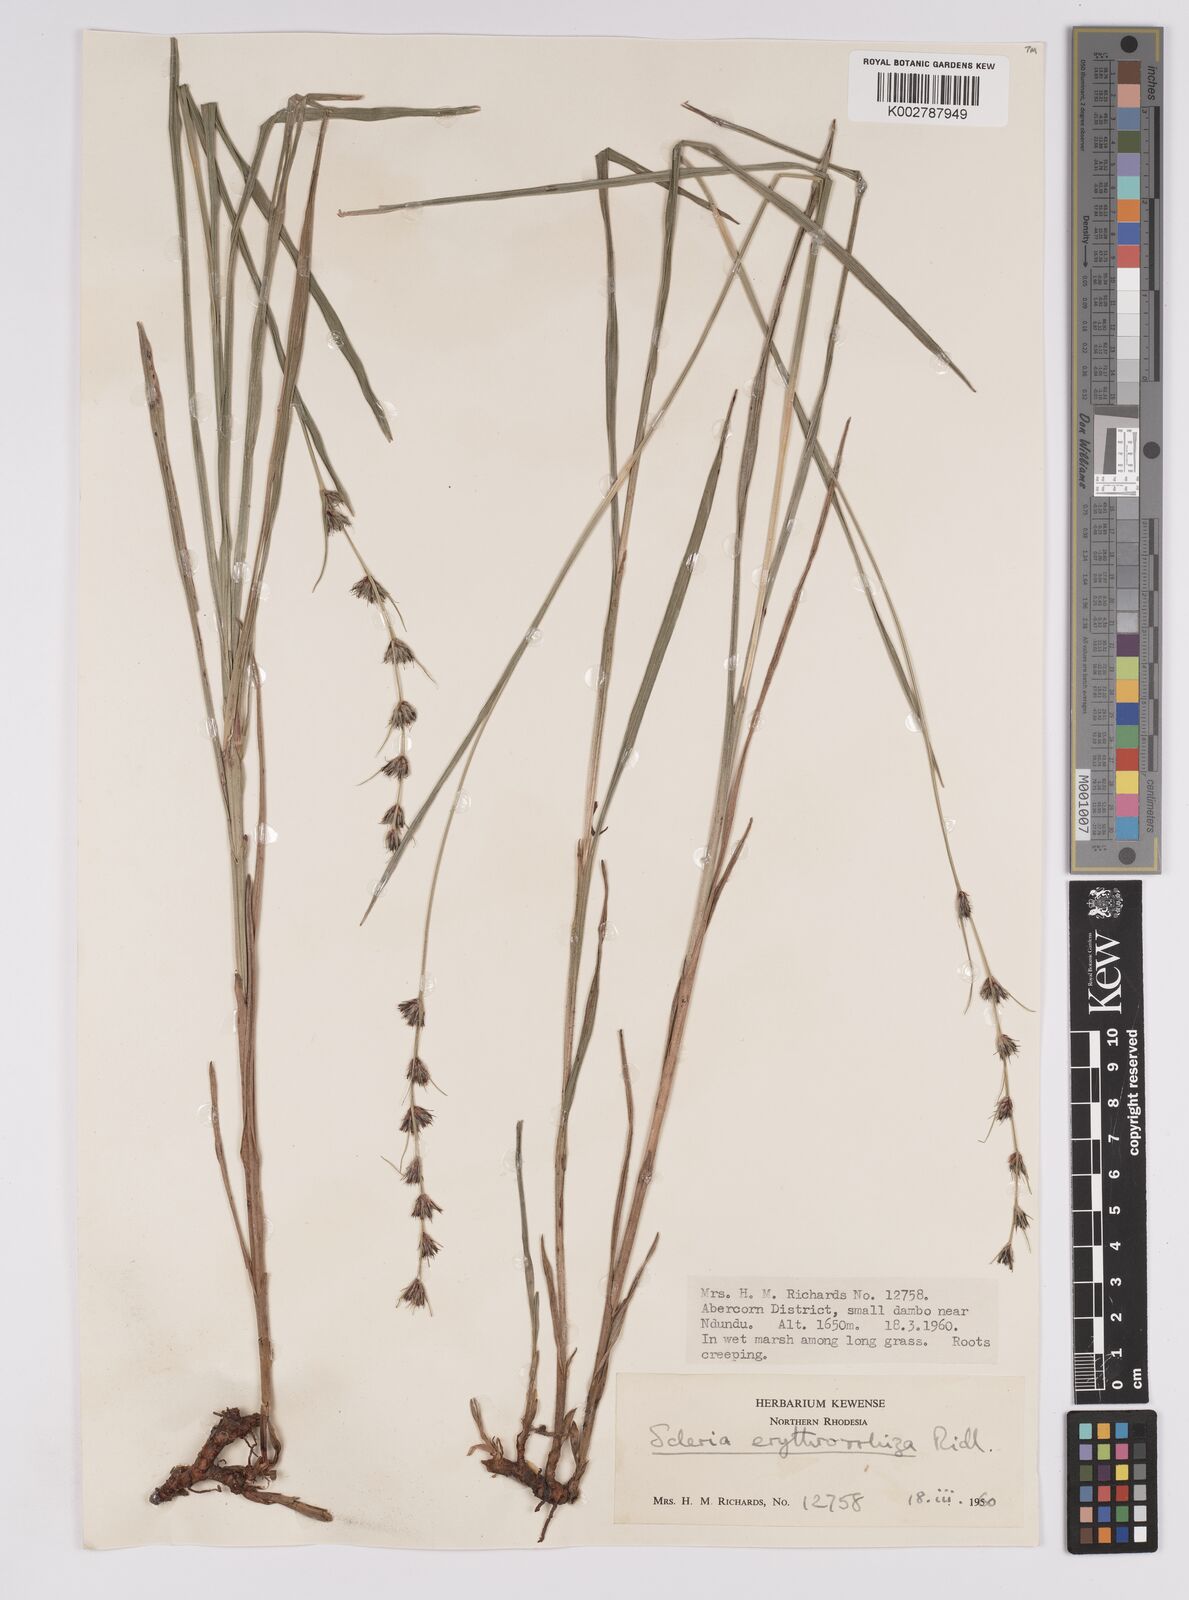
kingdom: Plantae
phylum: Tracheophyta
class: Liliopsida
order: Poales
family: Cyperaceae
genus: Scleria
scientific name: Scleria erythrorrhiza
